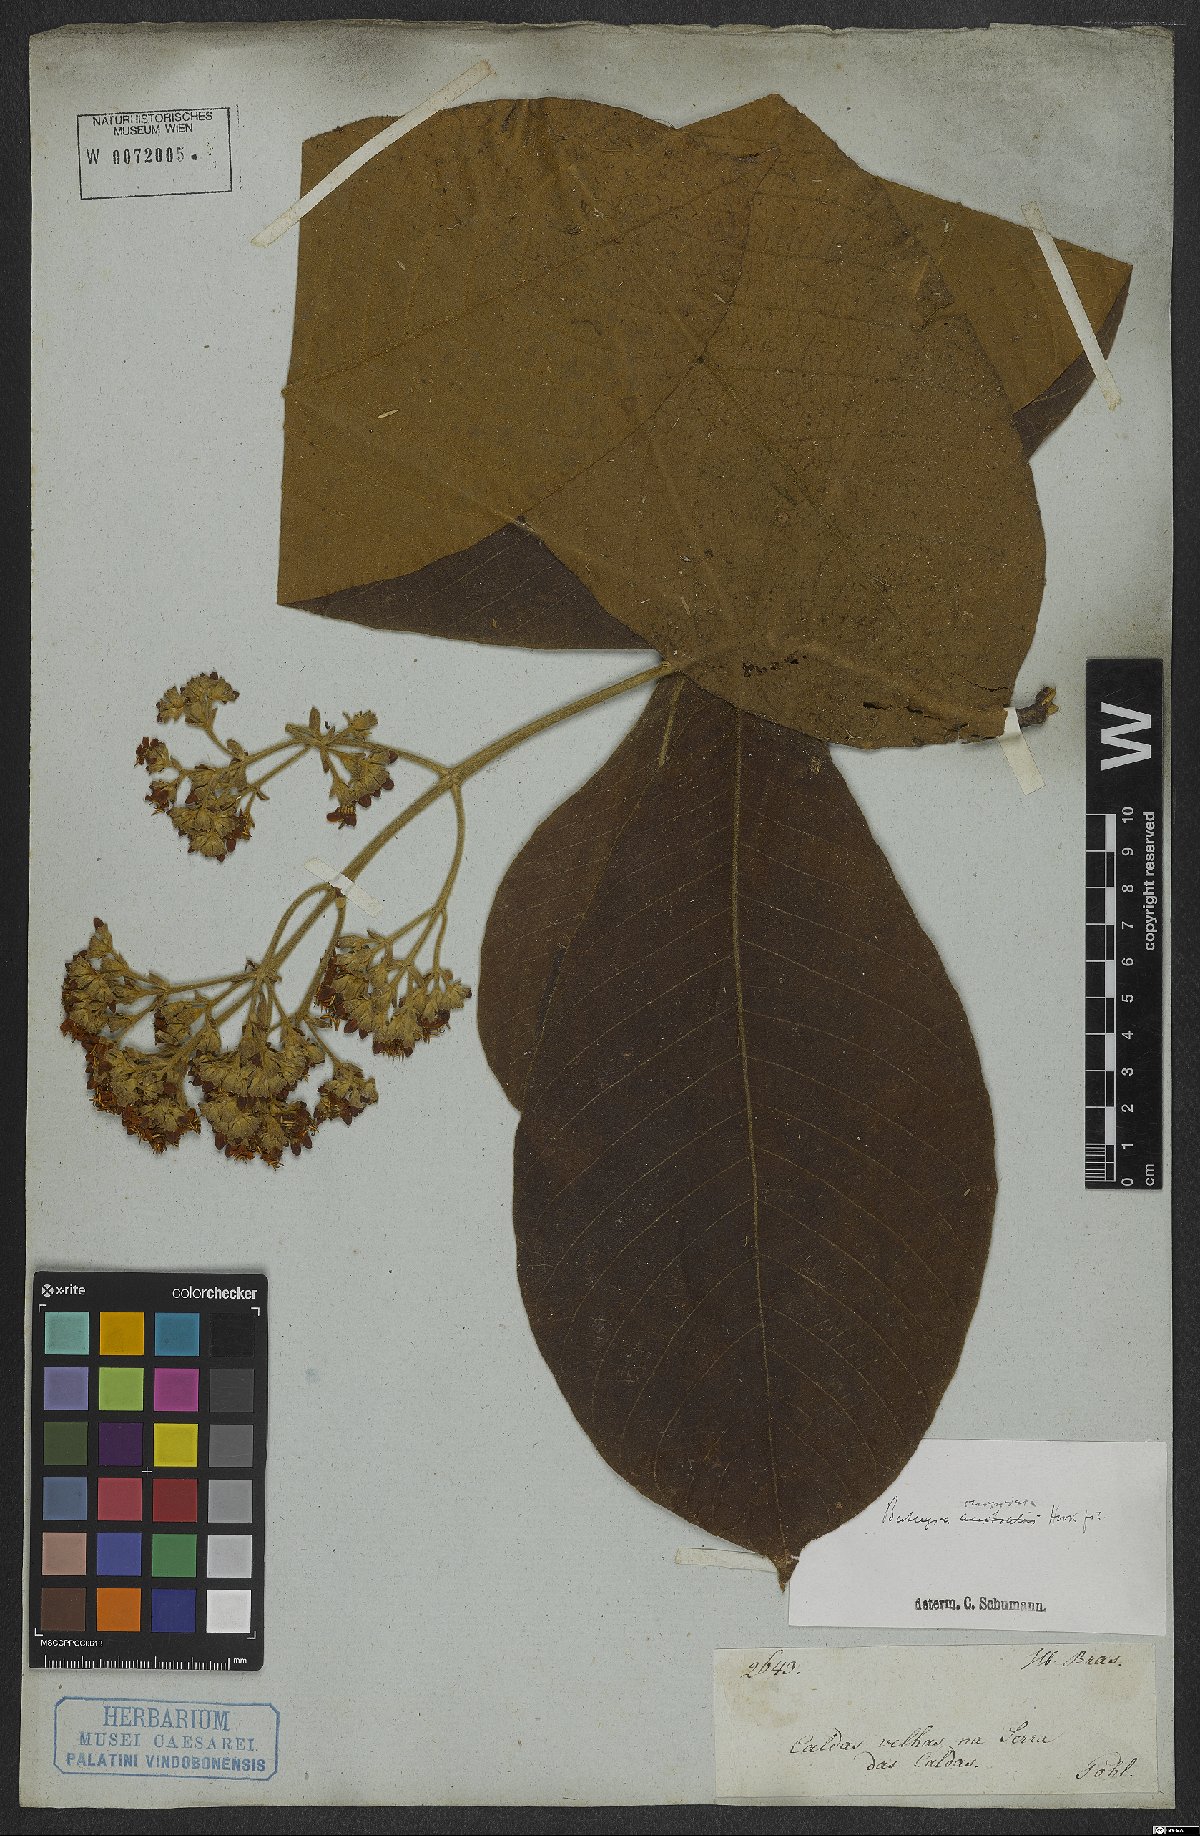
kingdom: Plantae
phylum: Tracheophyta
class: Magnoliopsida
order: Gentianales
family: Rubiaceae
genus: Schizocalyx
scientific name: Schizocalyx cuspidatus
